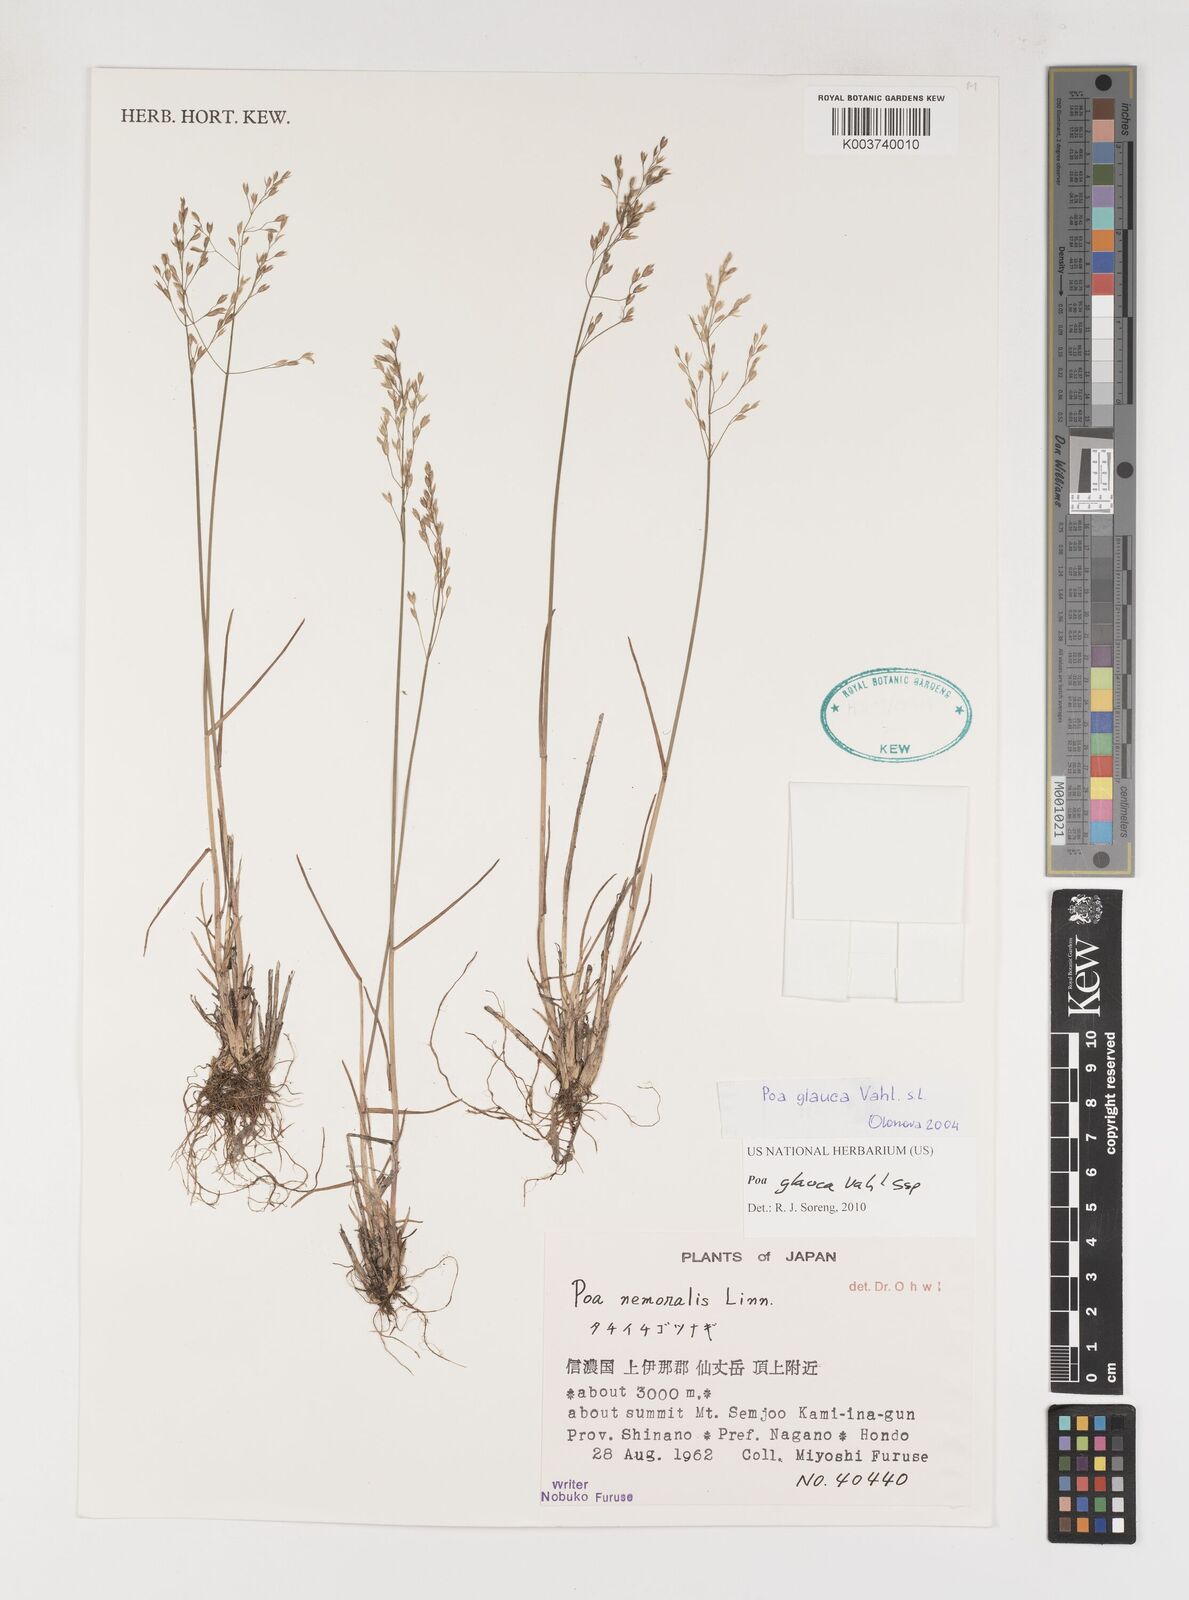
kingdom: Plantae
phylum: Tracheophyta
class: Liliopsida
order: Poales
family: Poaceae
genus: Poa
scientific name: Poa glauca
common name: Glaucous bluegrass
